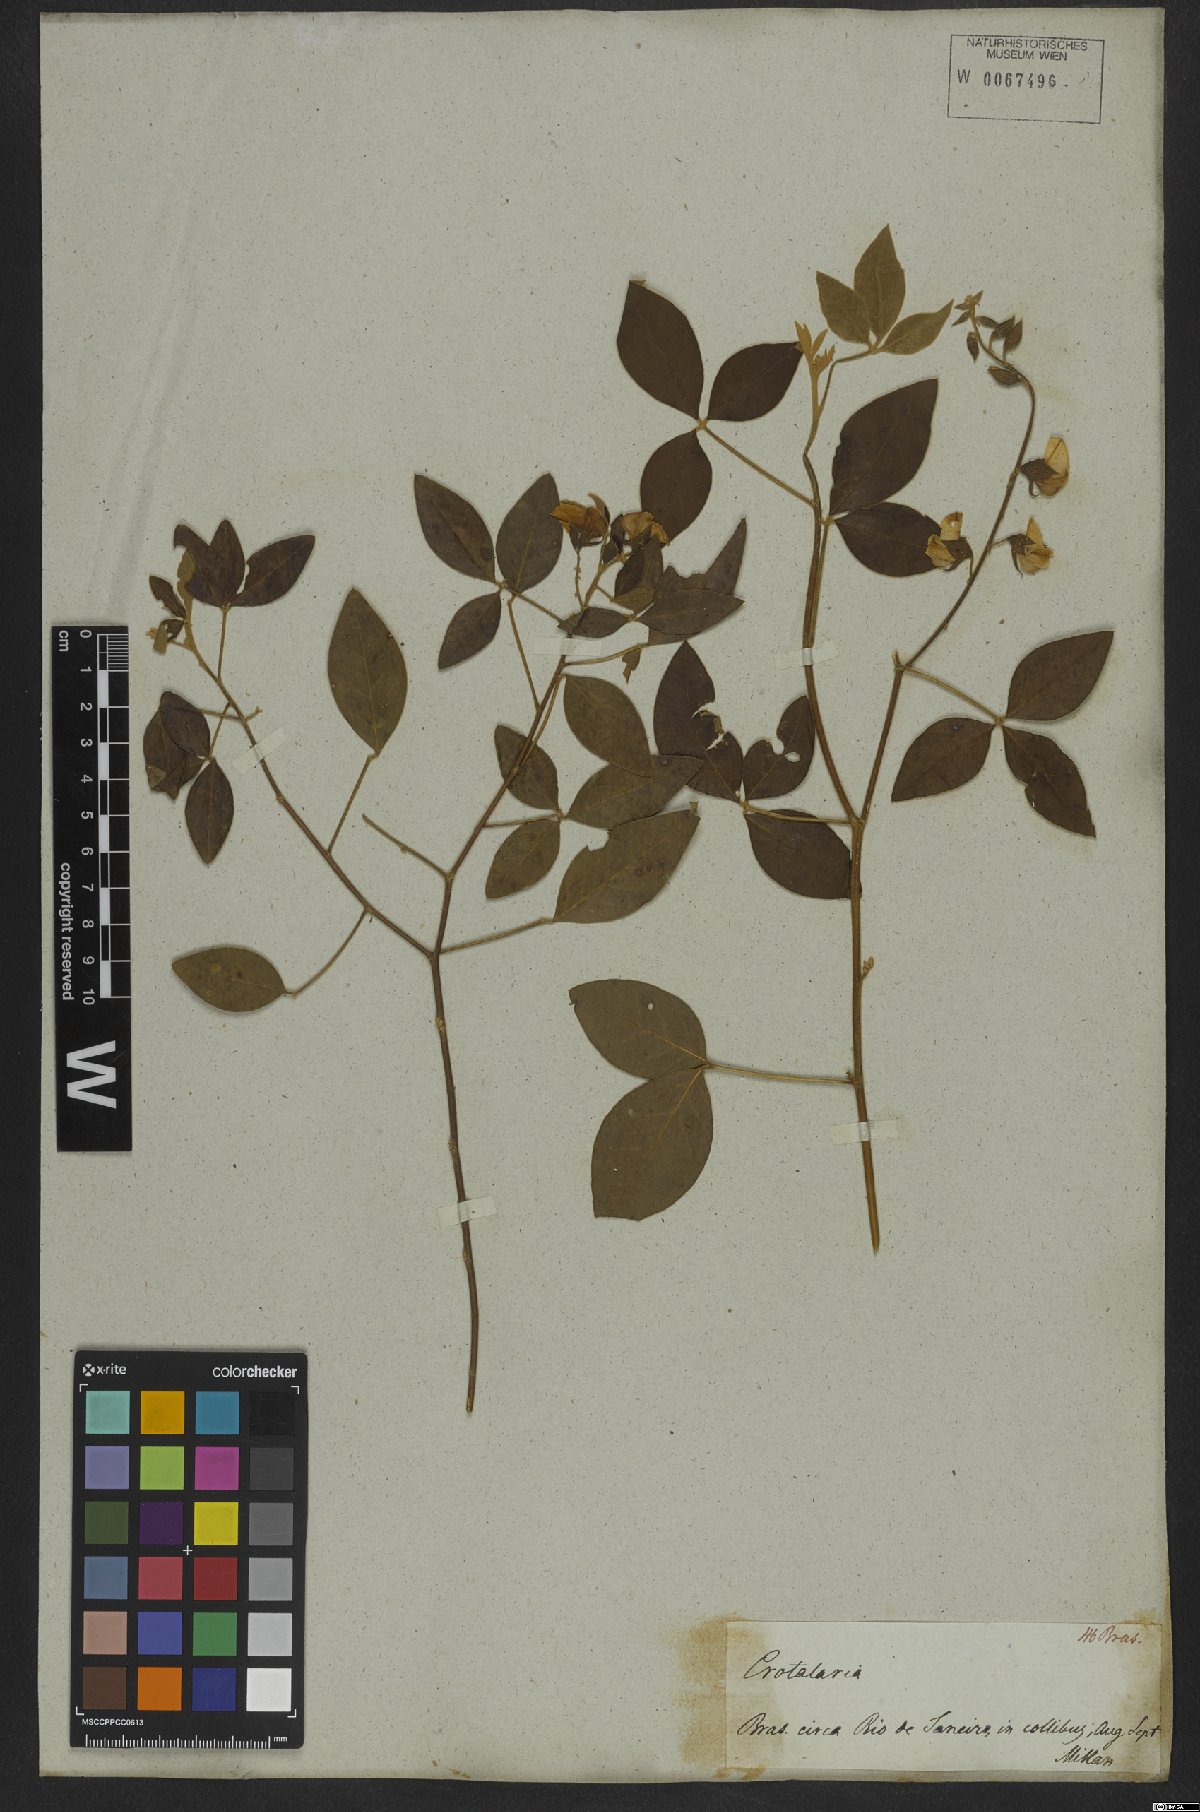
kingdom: Plantae
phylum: Tracheophyta
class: Magnoliopsida
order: Fabales
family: Fabaceae
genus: Crotalaria
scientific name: Crotalaria vitellina
